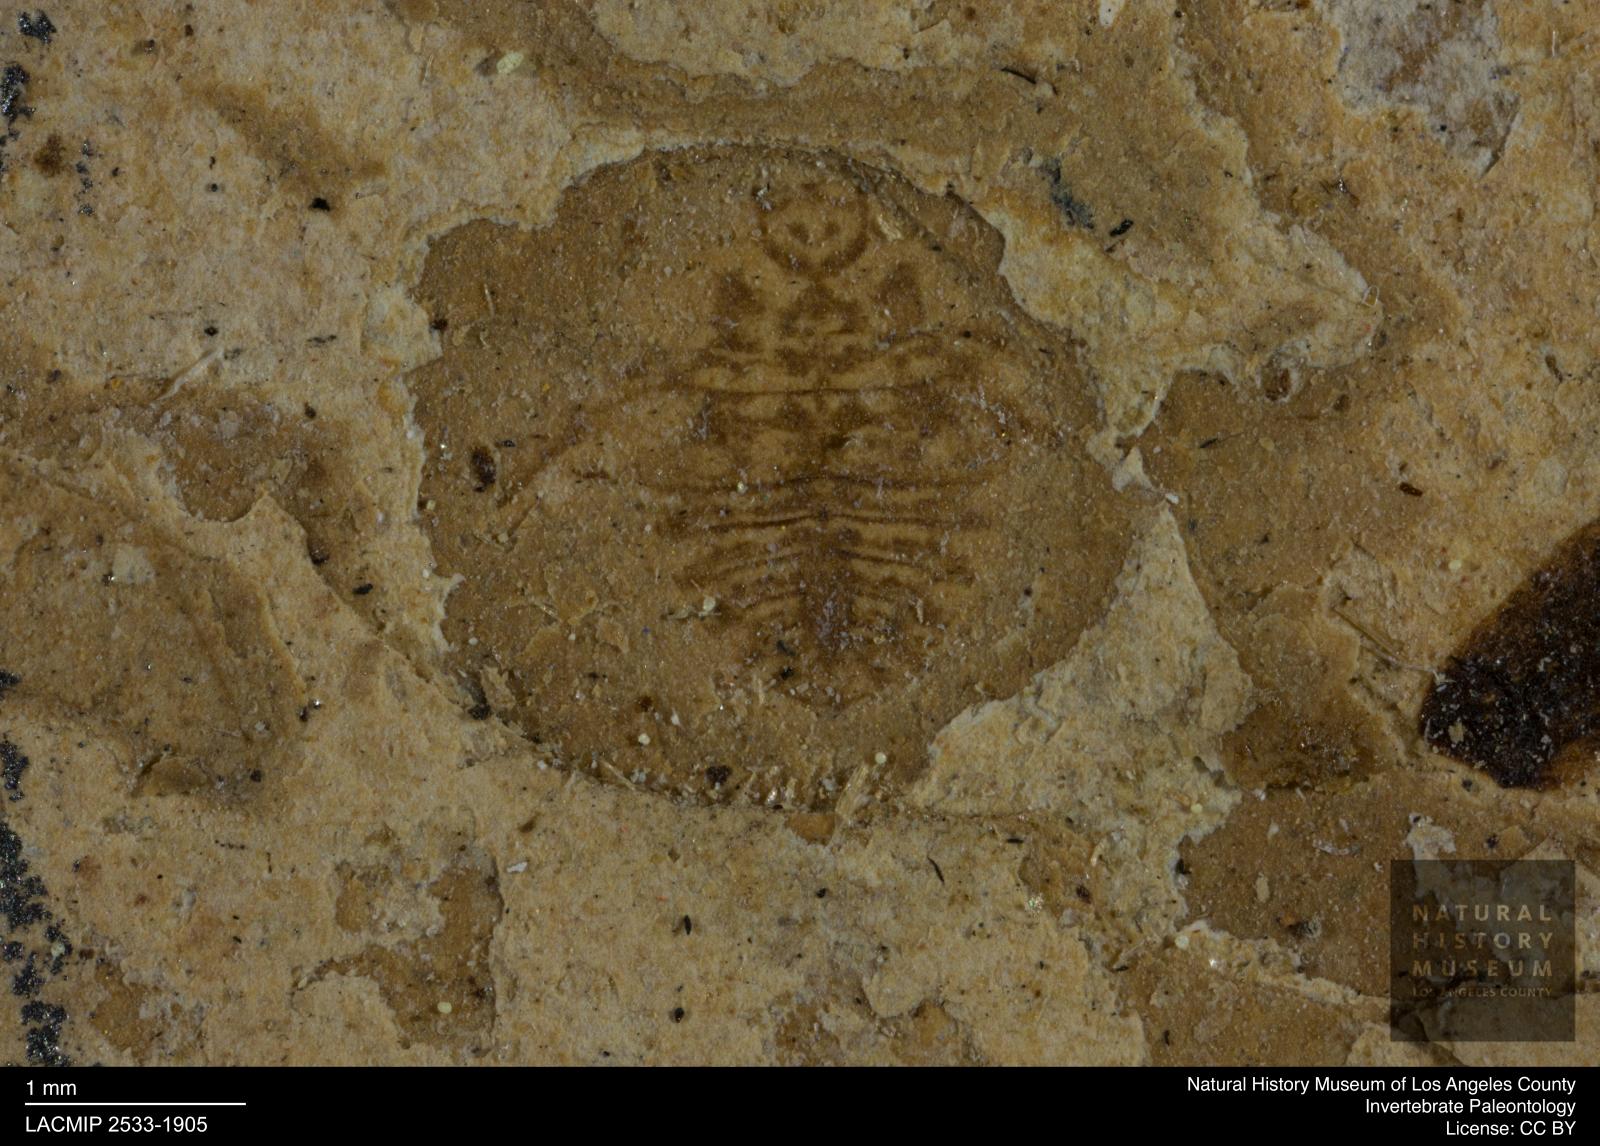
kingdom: Animalia
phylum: Arthropoda
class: Insecta
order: Hemiptera
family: Notonectidae
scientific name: Notonectidae
